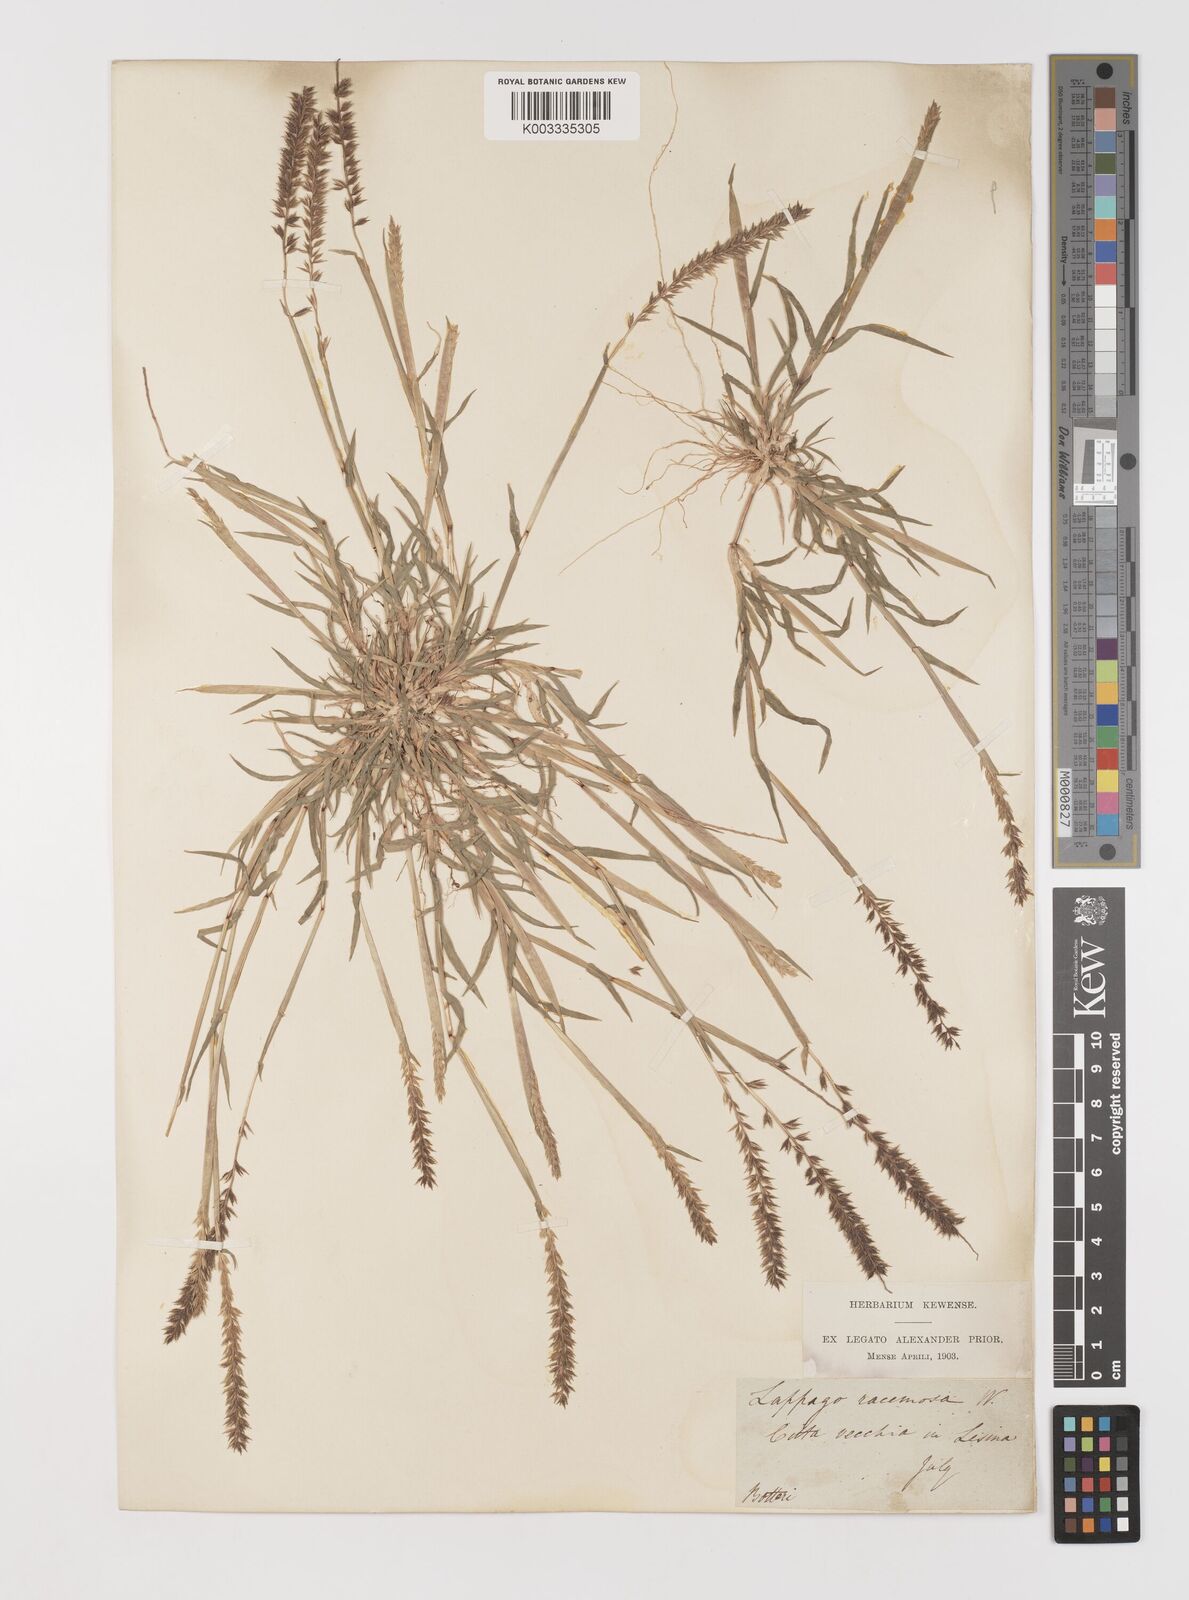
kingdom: Plantae
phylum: Tracheophyta
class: Liliopsida
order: Poales
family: Poaceae
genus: Tragus
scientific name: Tragus racemosus
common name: European bur-grass
